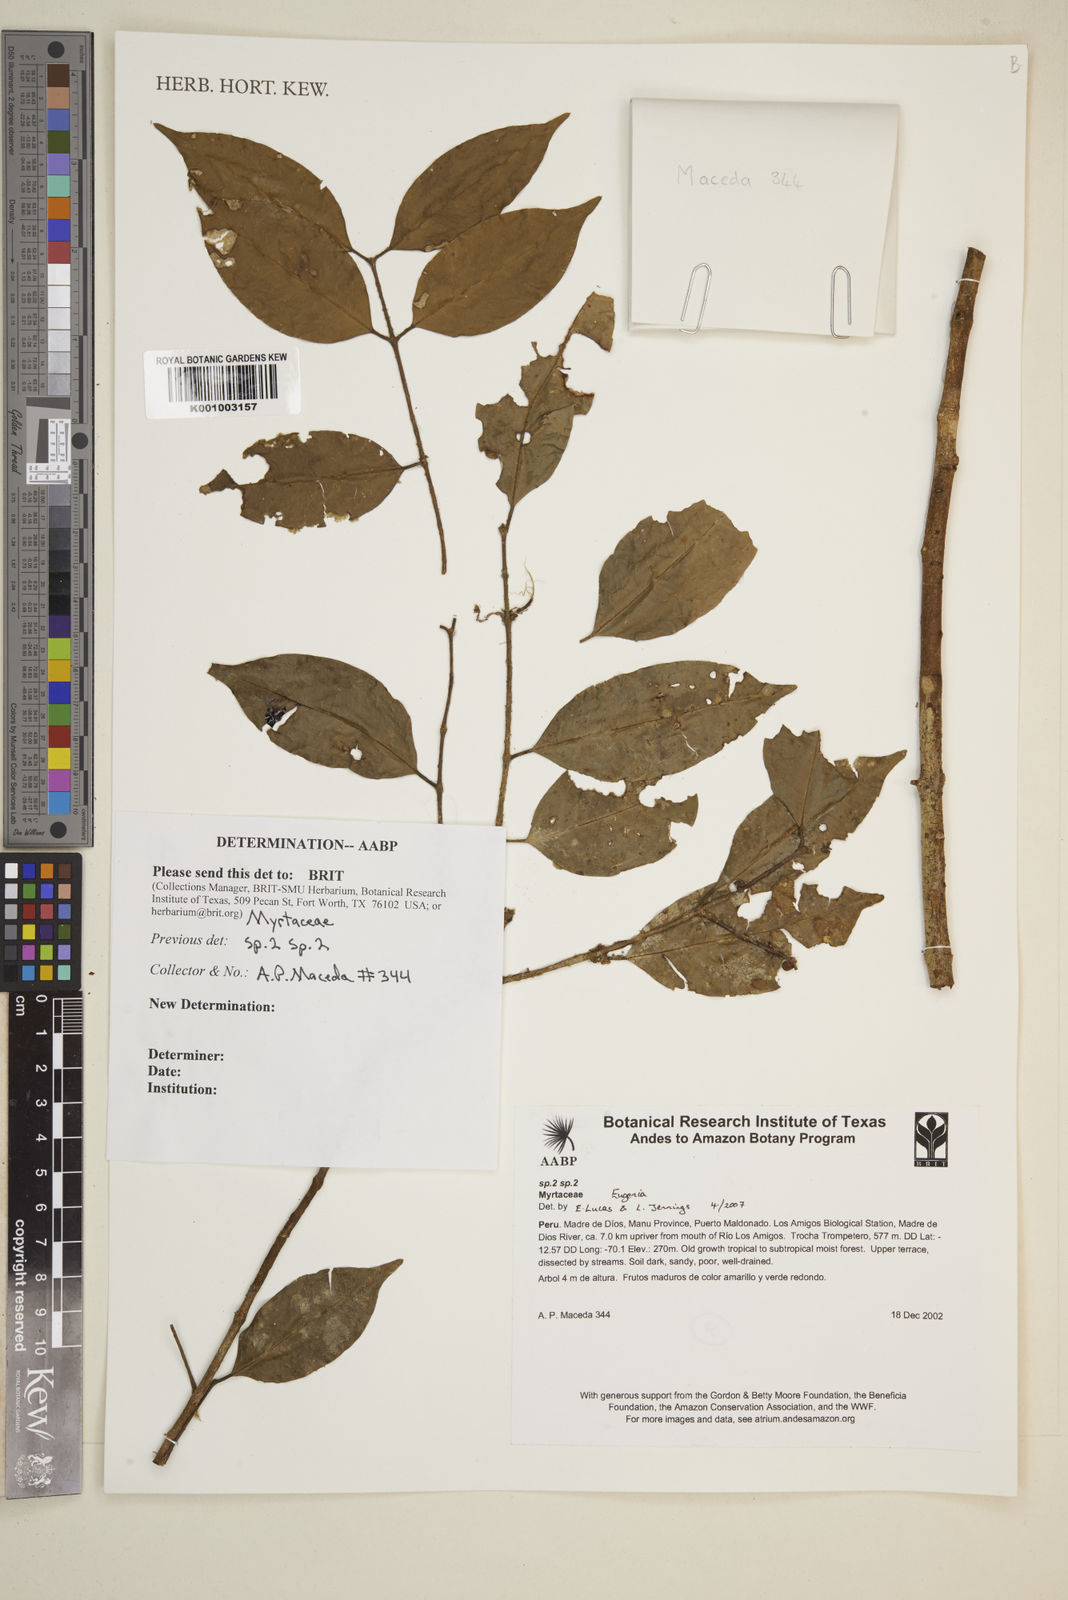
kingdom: Plantae
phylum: Tracheophyta
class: Magnoliopsida
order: Myrtales
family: Myrtaceae
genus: Eugenia
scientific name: Eugenia
